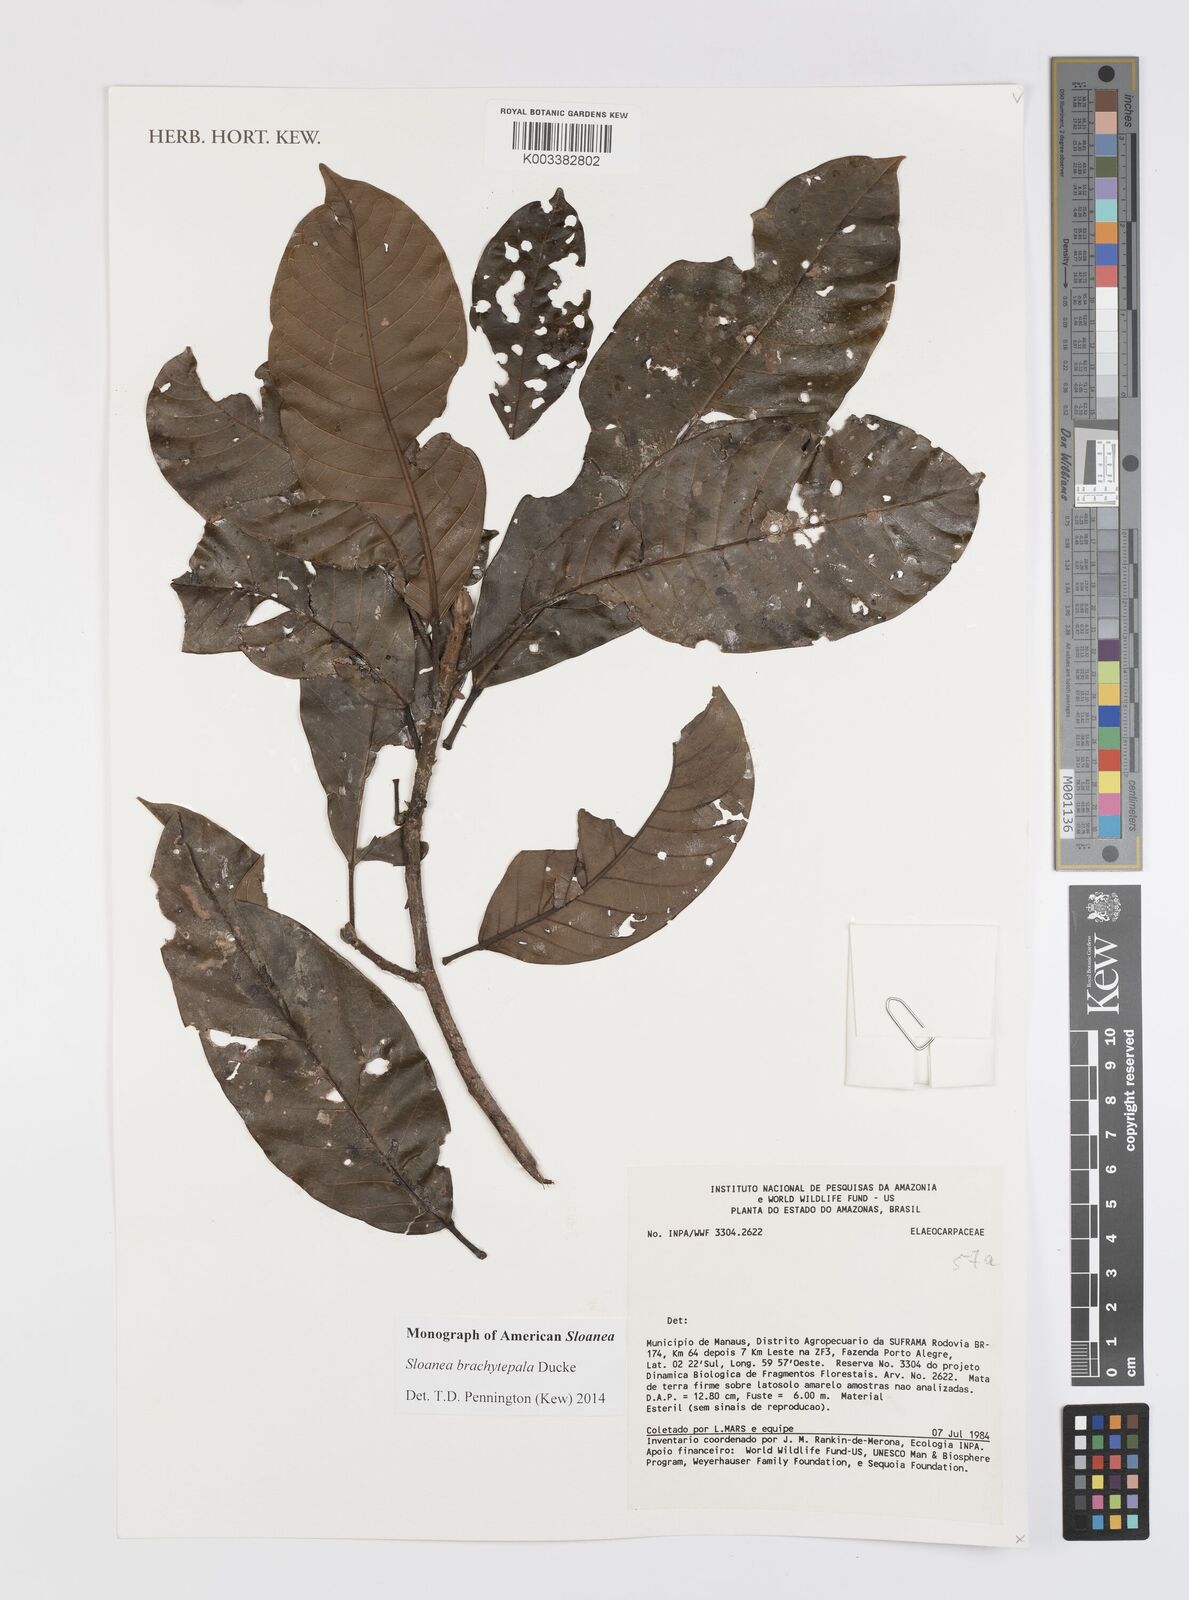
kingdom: Plantae
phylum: Tracheophyta
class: Magnoliopsida
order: Oxalidales
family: Elaeocarpaceae
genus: Sloanea
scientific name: Sloanea brachytepala
